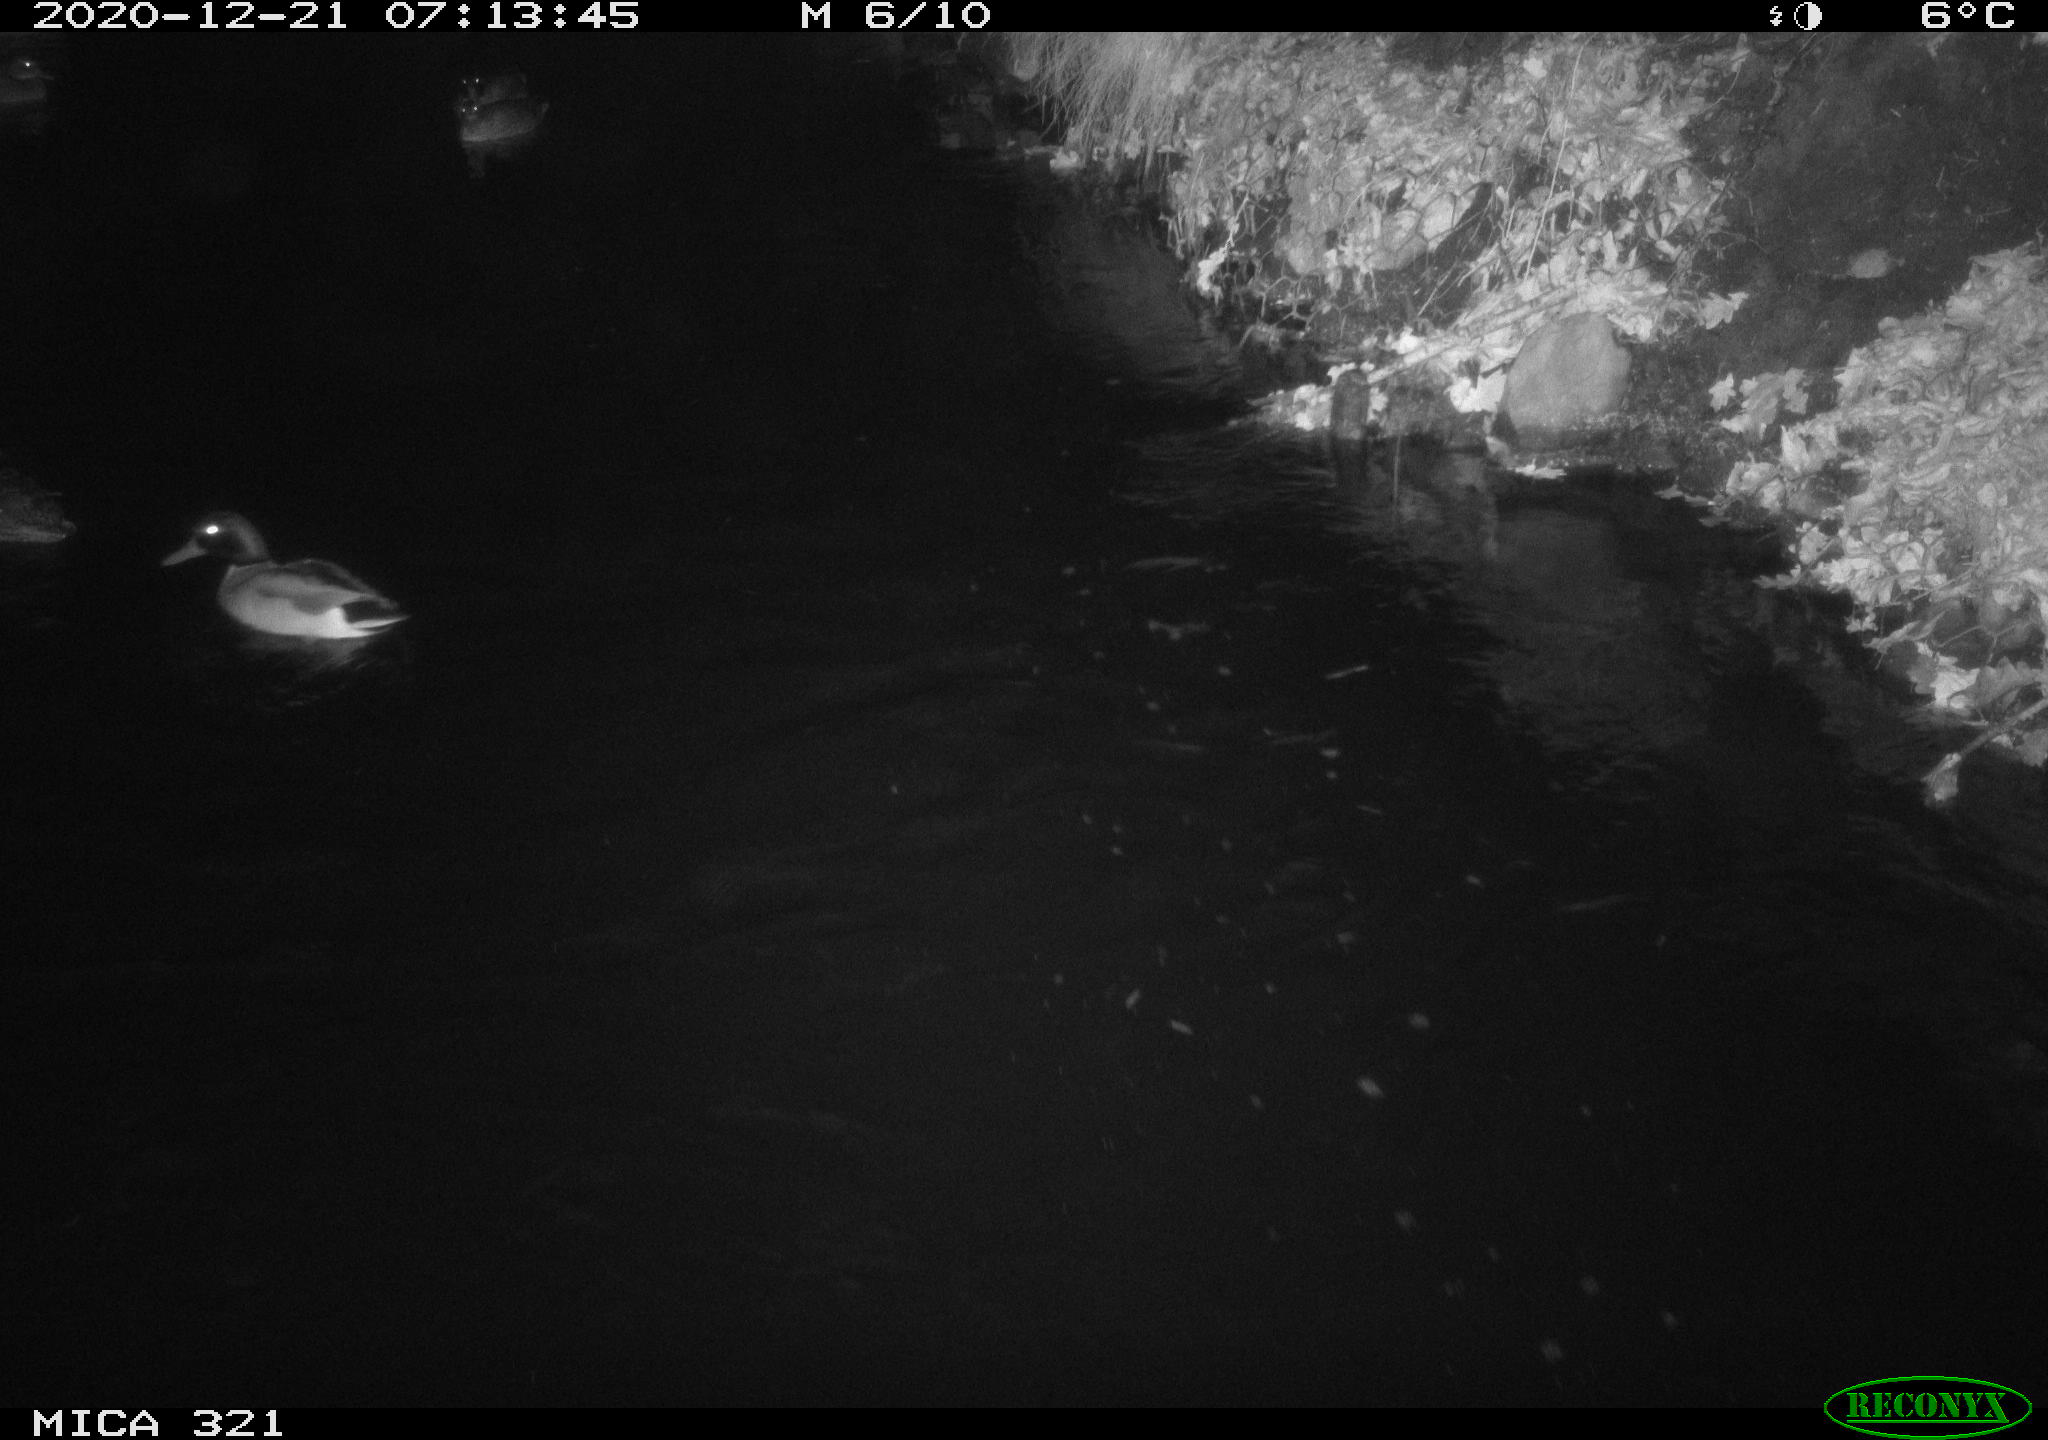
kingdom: Animalia
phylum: Chordata
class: Aves
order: Anseriformes
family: Anatidae
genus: Anas
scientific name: Anas platyrhynchos
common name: Mallard
